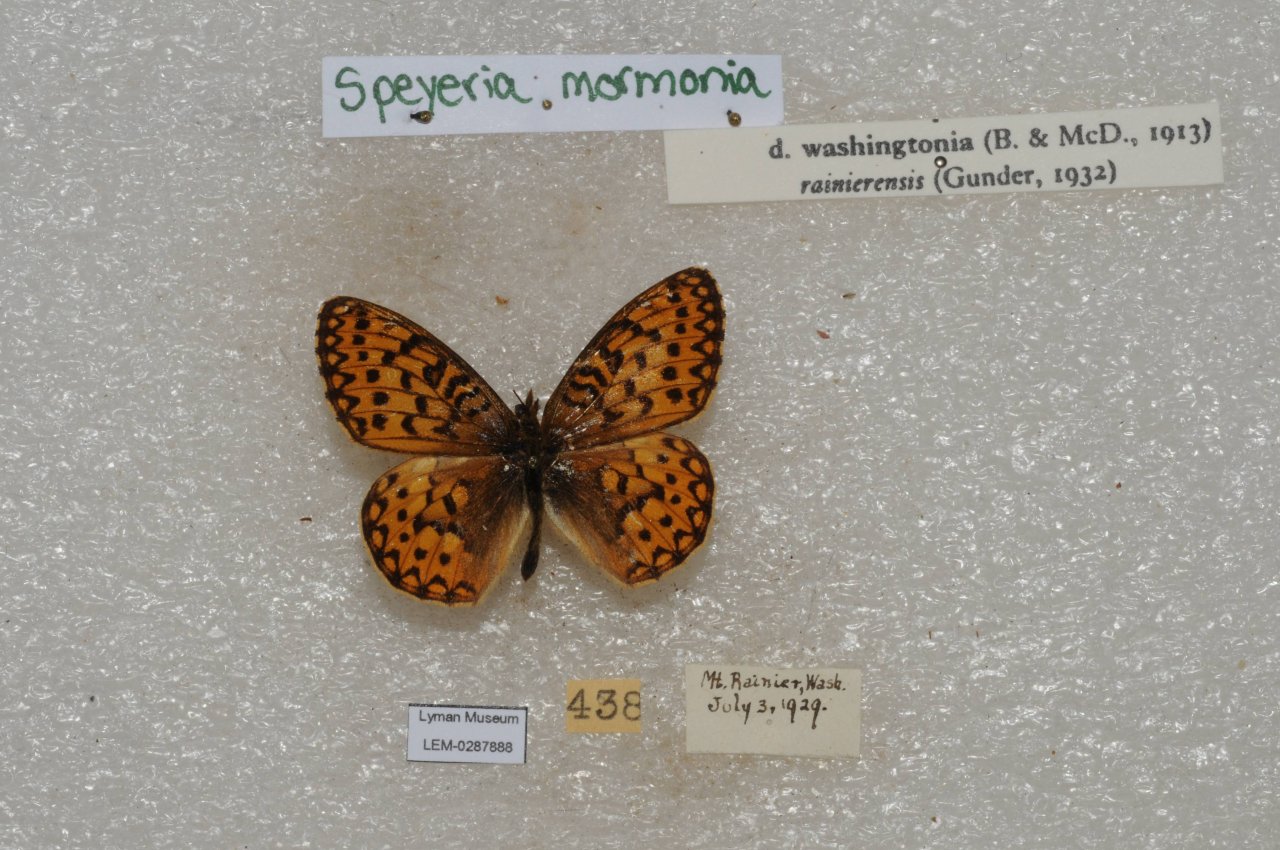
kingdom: Animalia
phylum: Arthropoda
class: Insecta
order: Lepidoptera
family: Nymphalidae
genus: Speyeria
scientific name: Speyeria mormonia
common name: Mormon Fritillary
